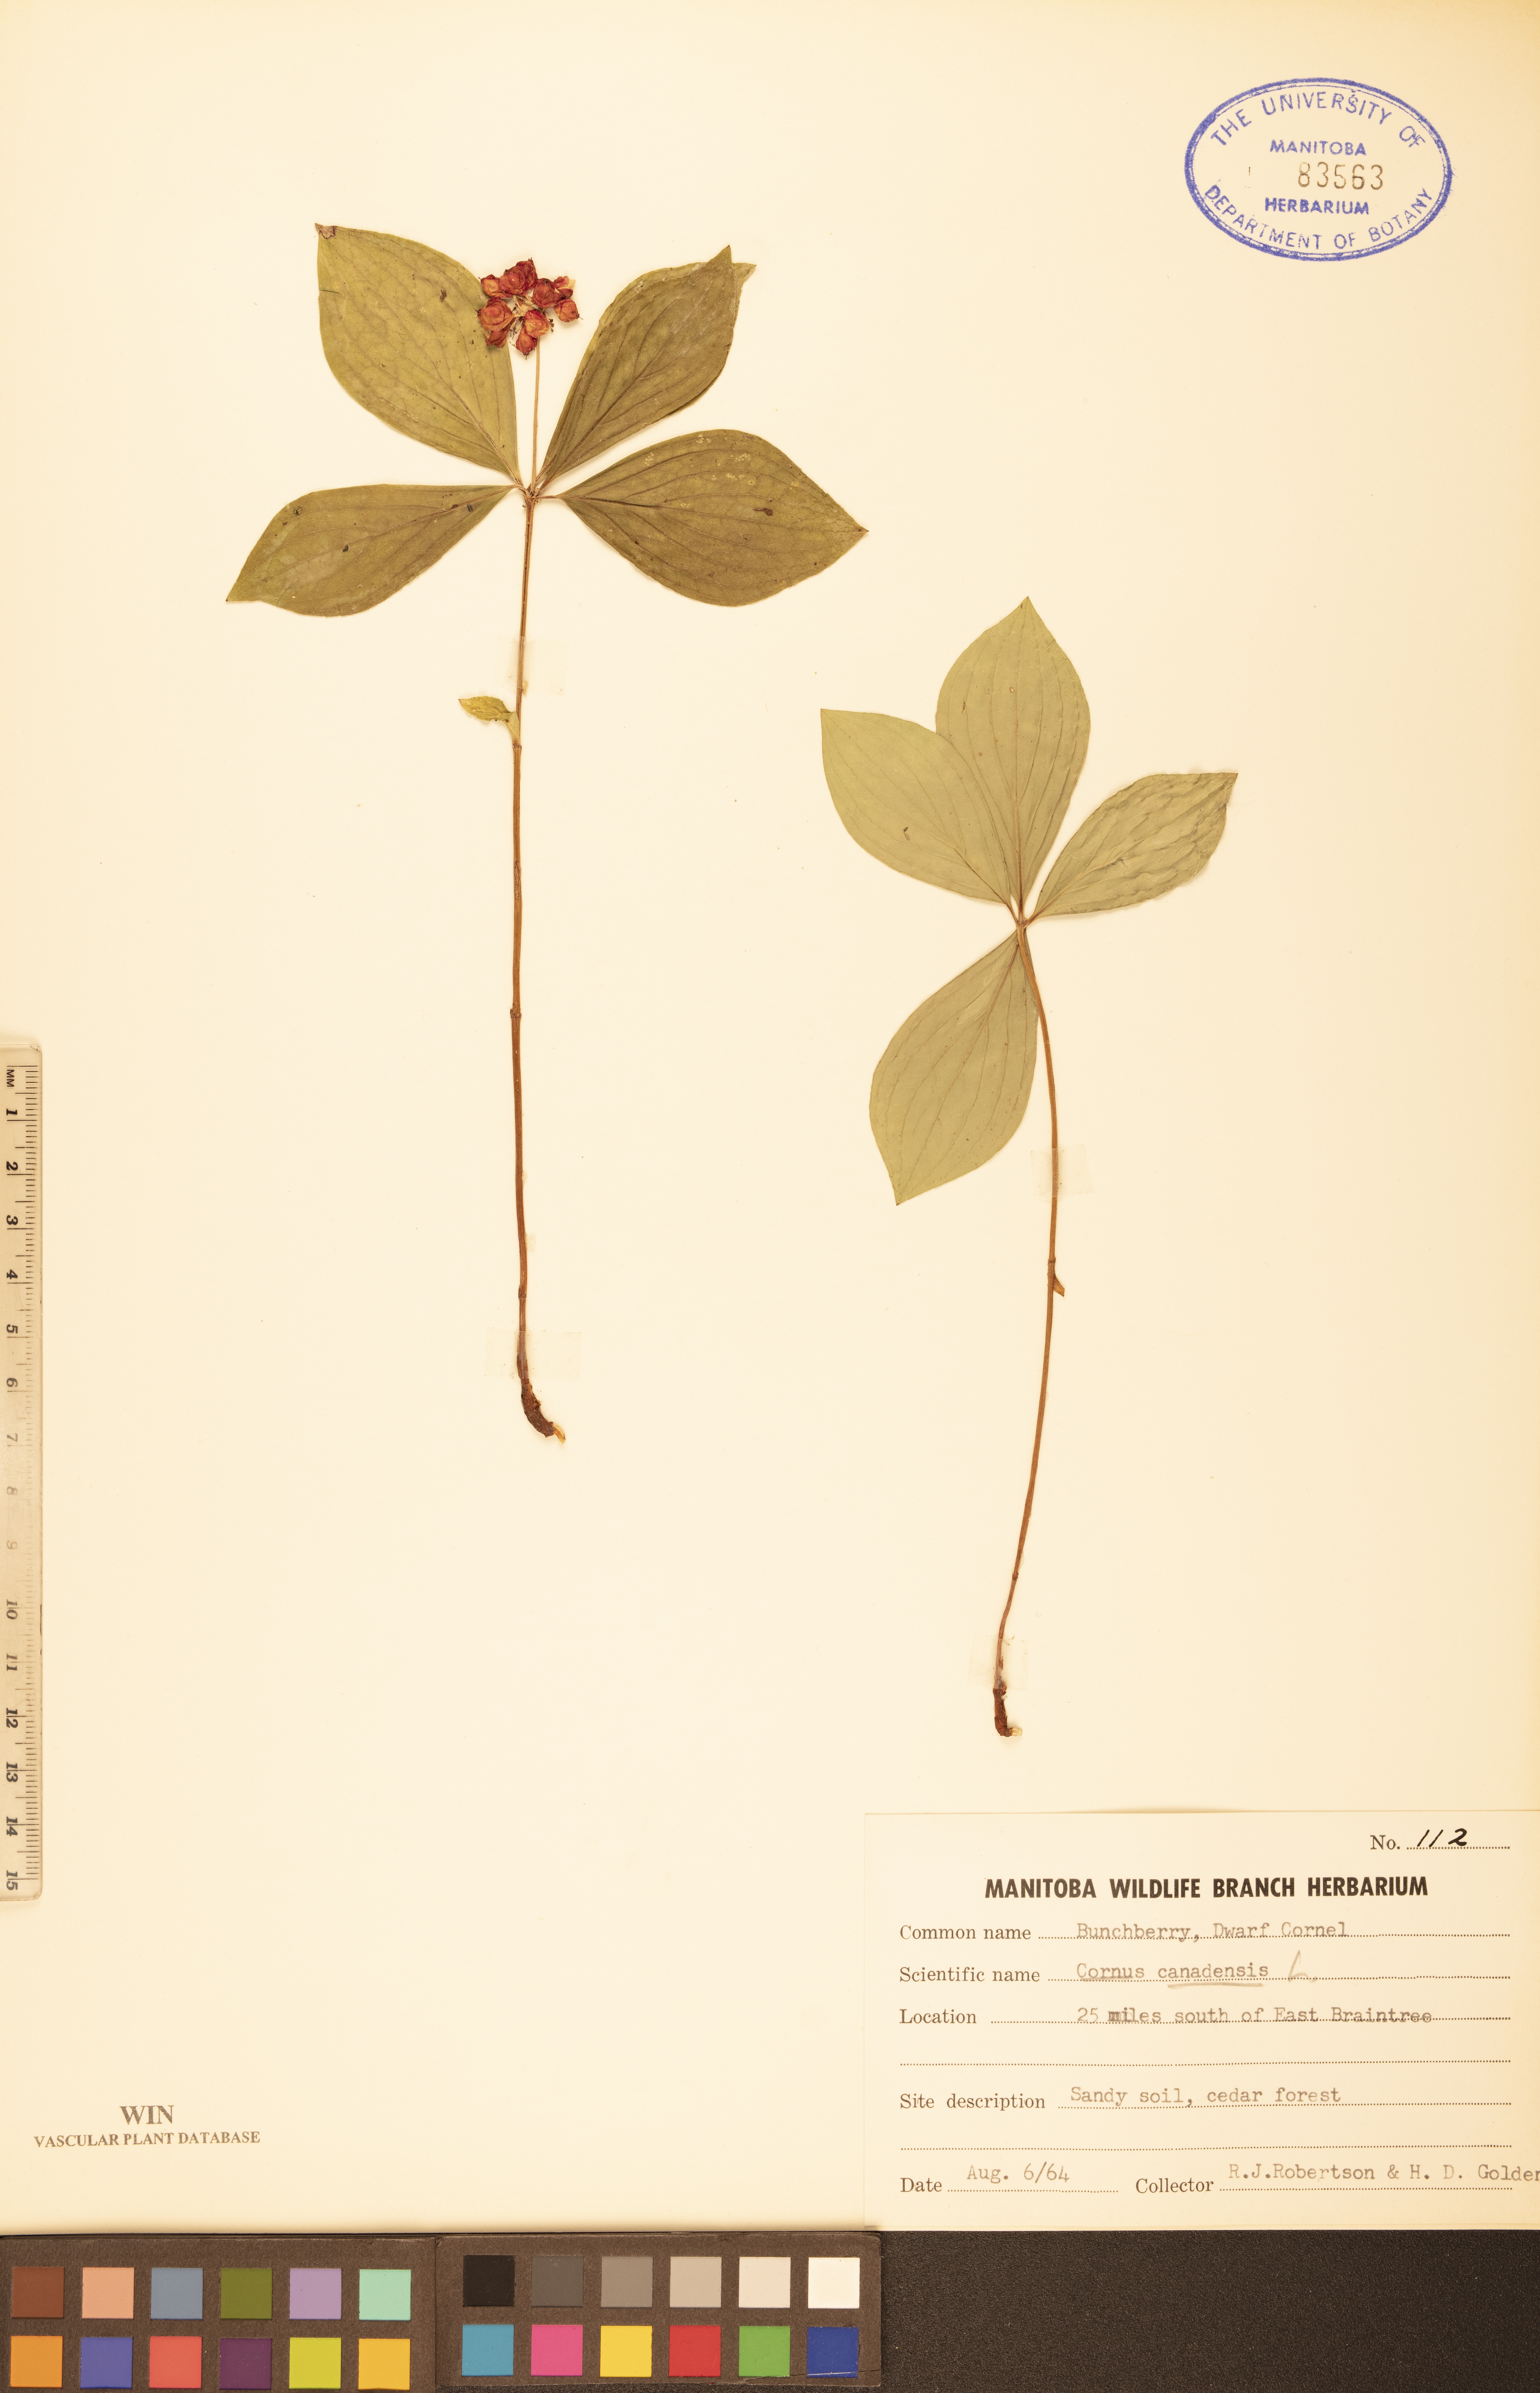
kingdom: Plantae
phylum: Tracheophyta
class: Magnoliopsida
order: Cornales
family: Cornaceae
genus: Cornus
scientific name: Cornus canadensis
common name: Creeping dogwood
